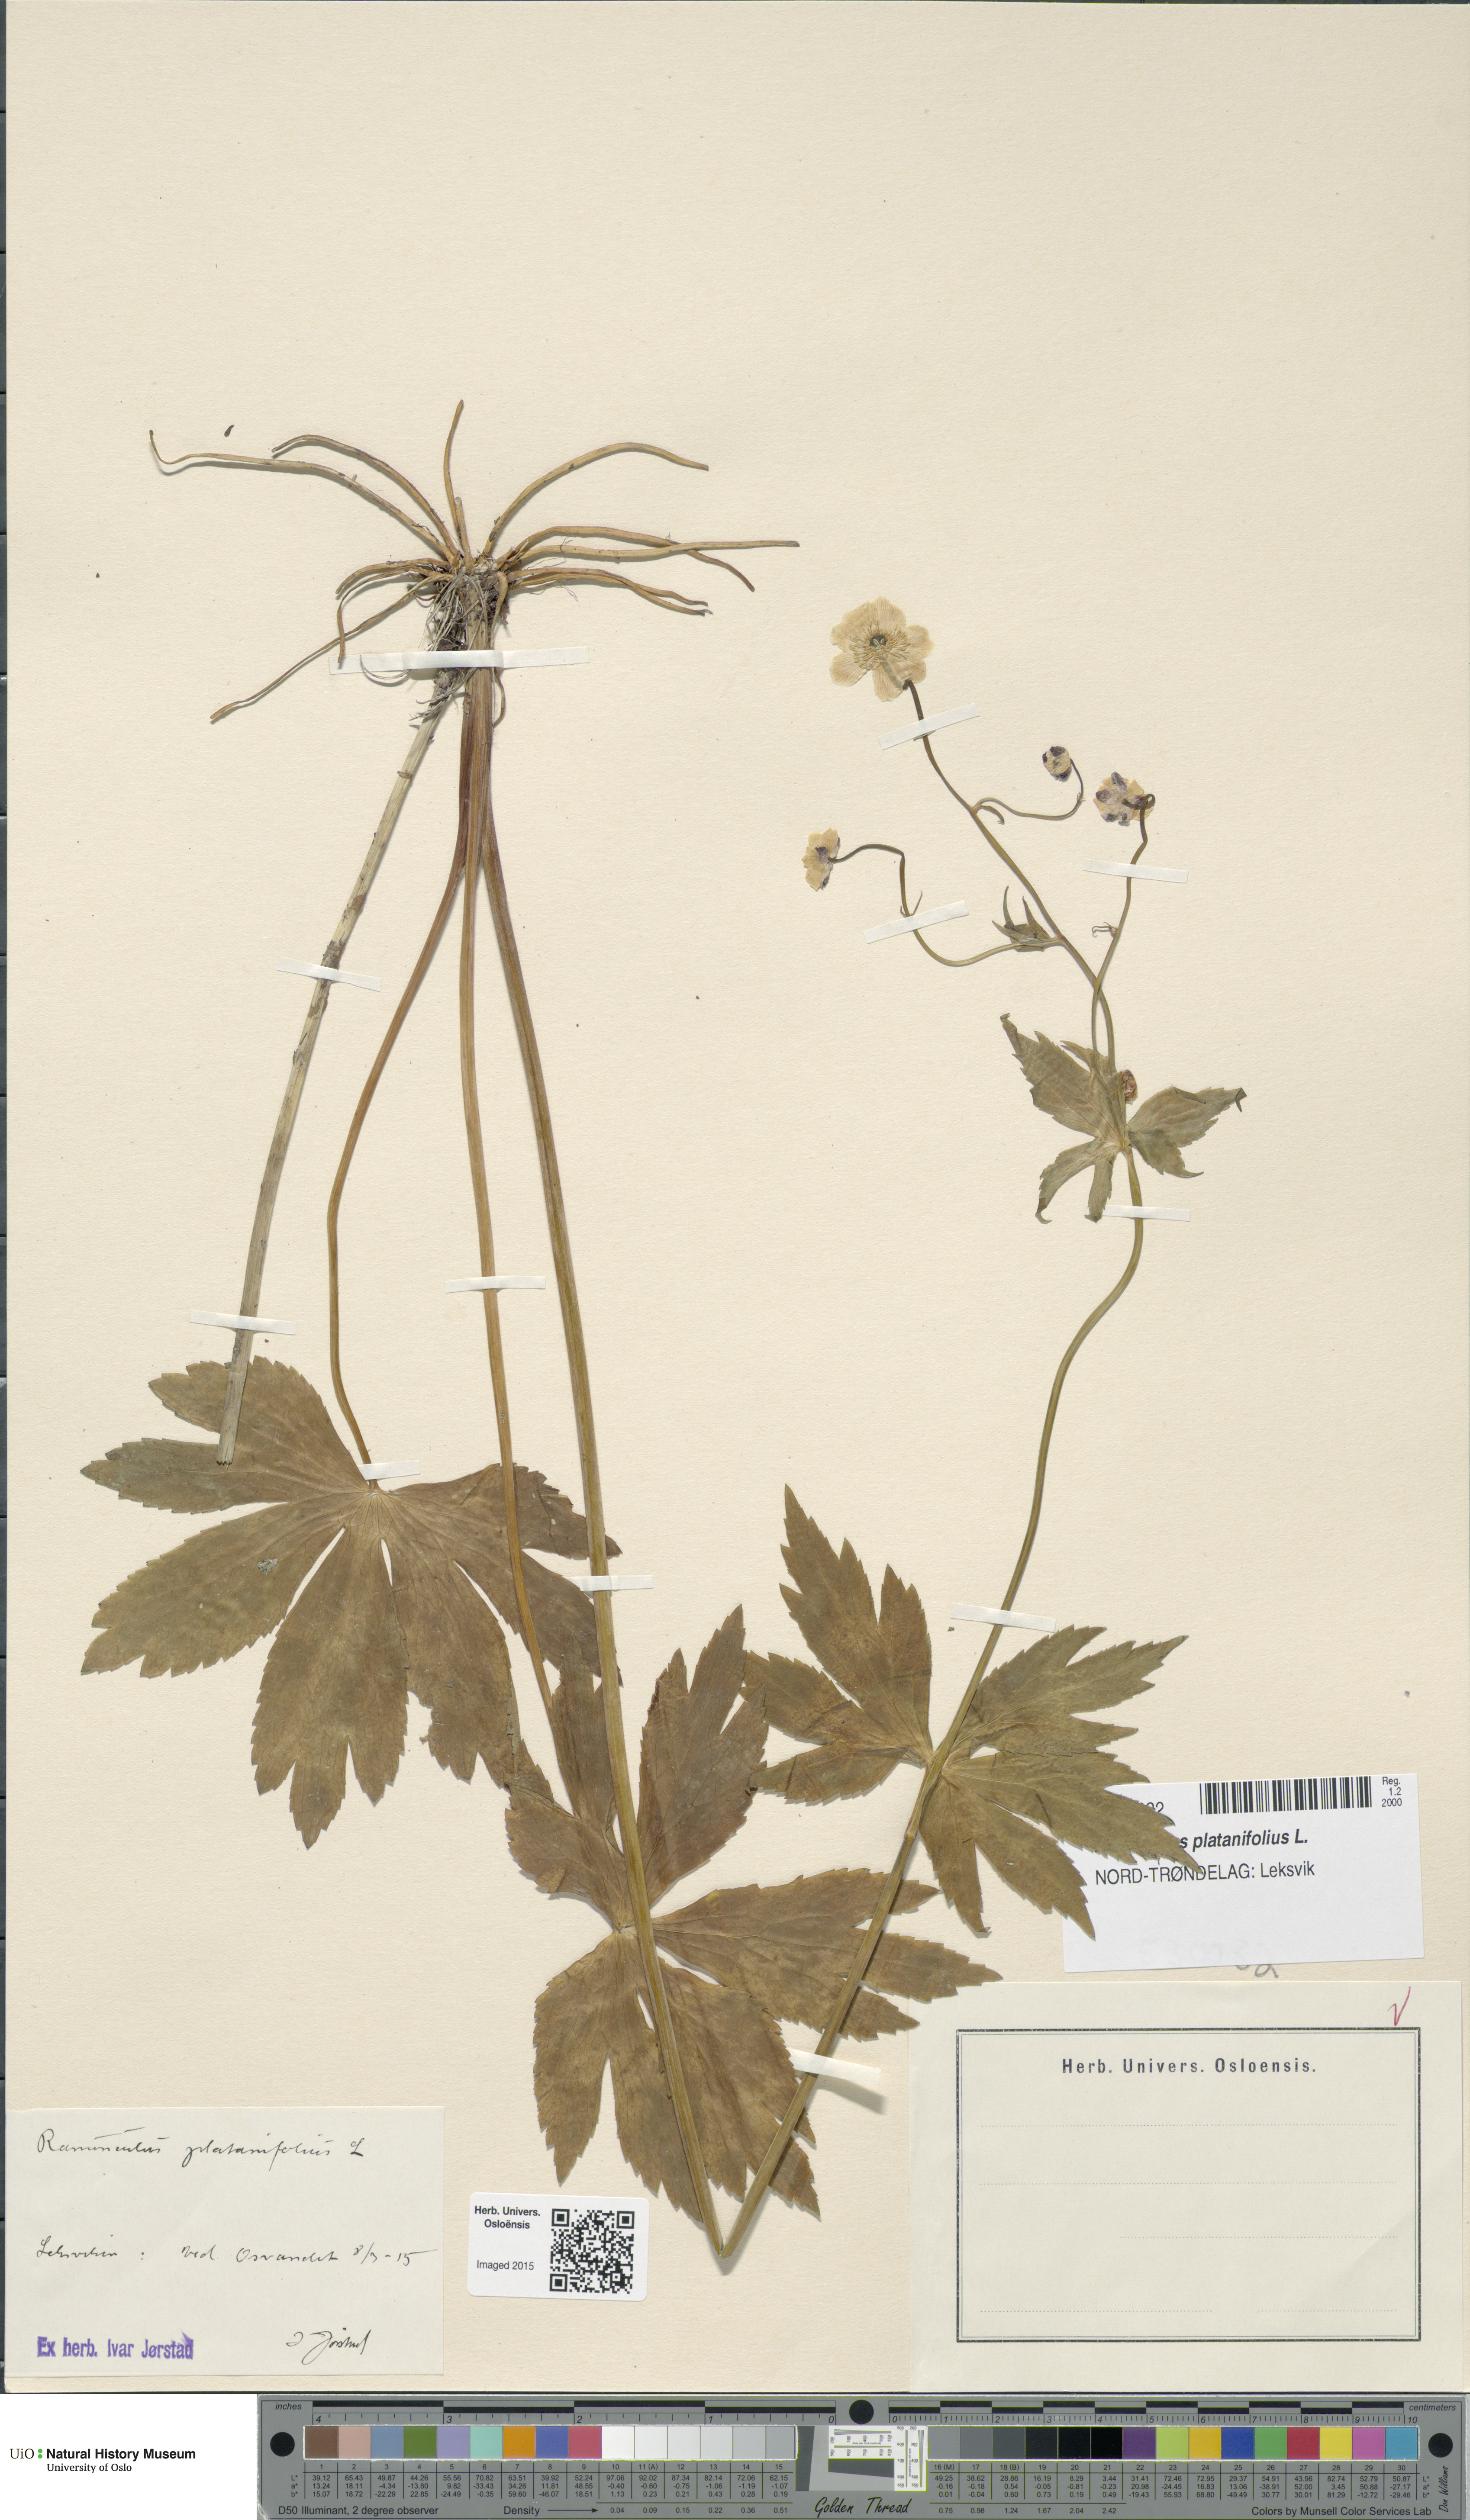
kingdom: Plantae
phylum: Tracheophyta
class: Magnoliopsida
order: Ranunculales
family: Ranunculaceae
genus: Ranunculus
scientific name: Ranunculus platanifolius
